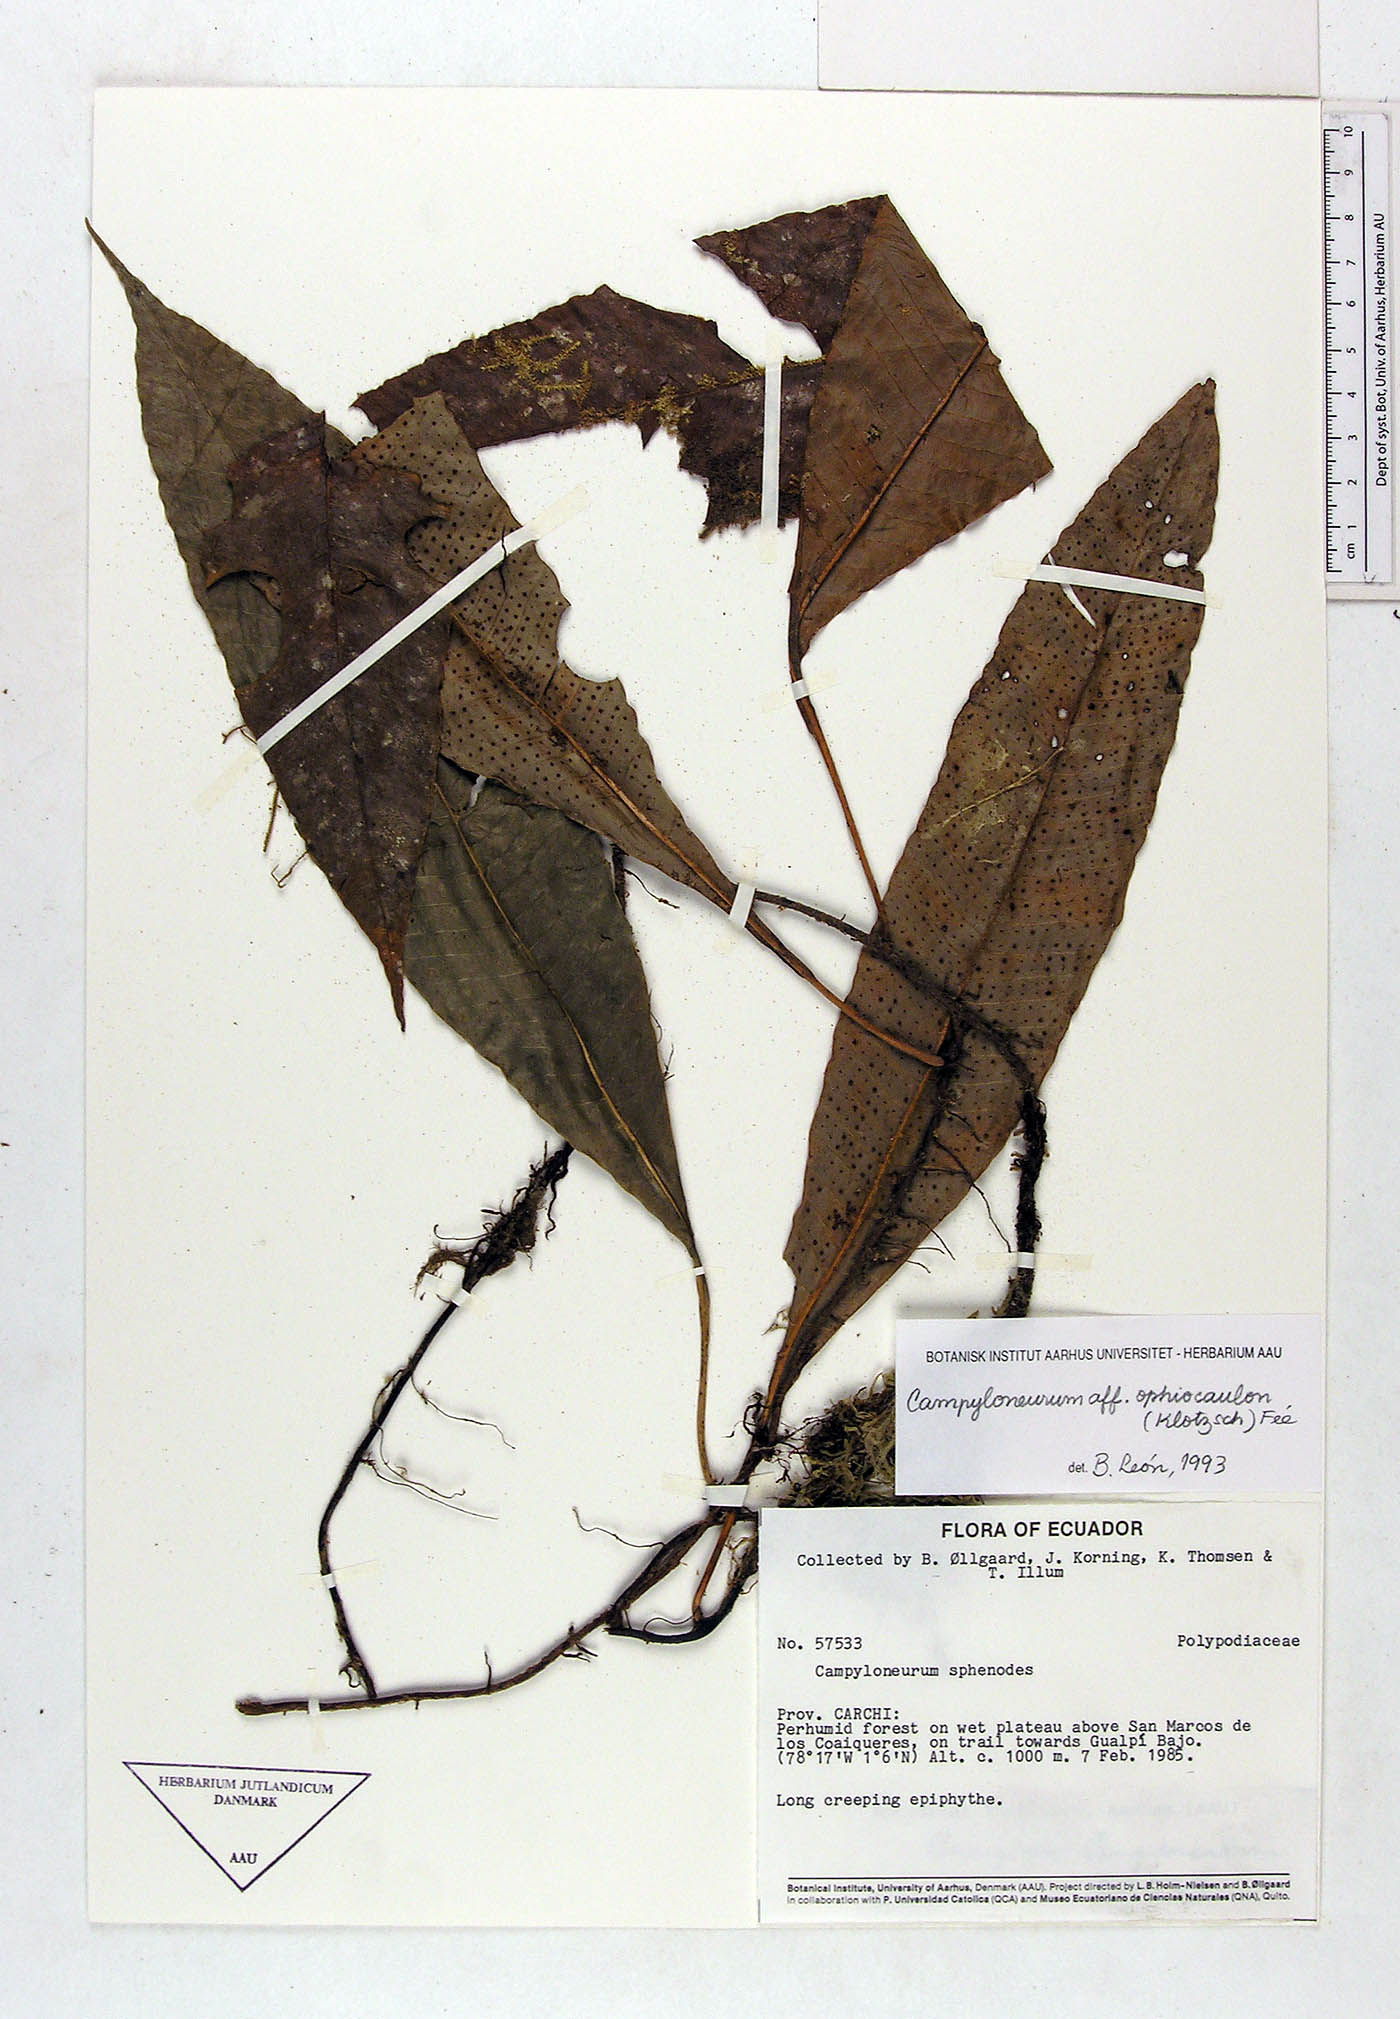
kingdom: Plantae
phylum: Tracheophyta
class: Polypodiopsida
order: Polypodiales
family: Polypodiaceae
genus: Campyloneurum
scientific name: Campyloneurum ophiocaulon
